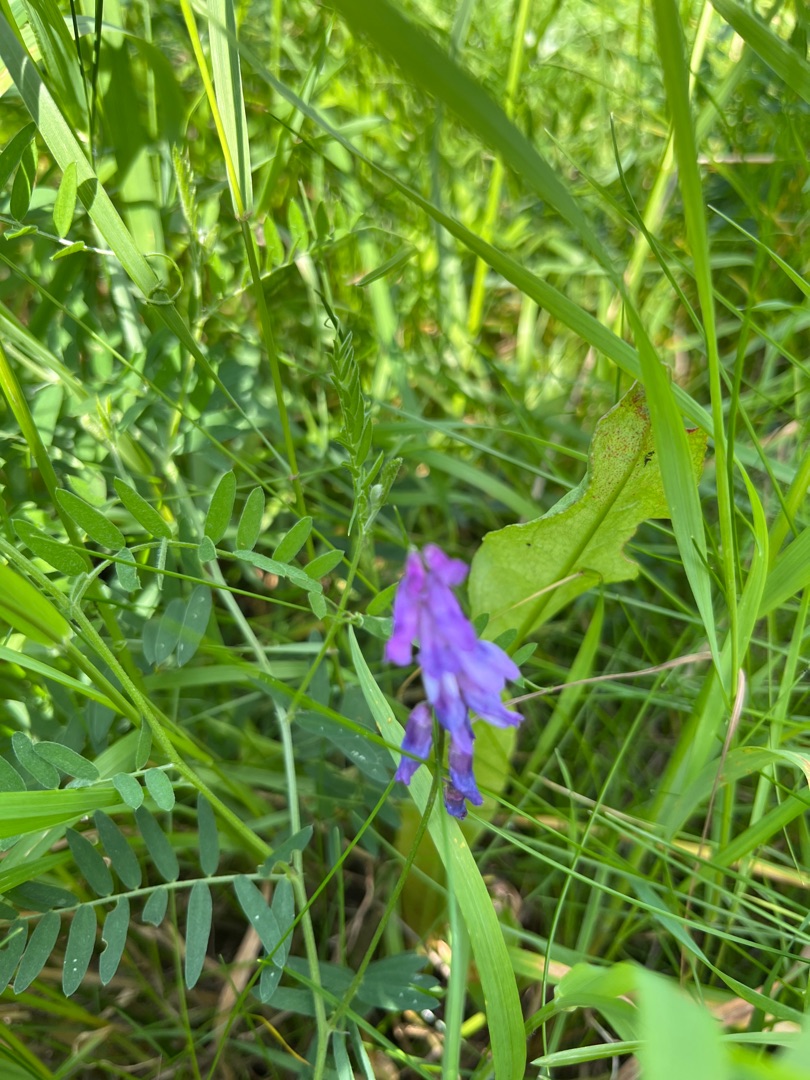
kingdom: Plantae
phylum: Tracheophyta
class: Magnoliopsida
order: Fabales
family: Fabaceae
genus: Vicia
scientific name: Vicia cracca
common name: Muse-vikke
